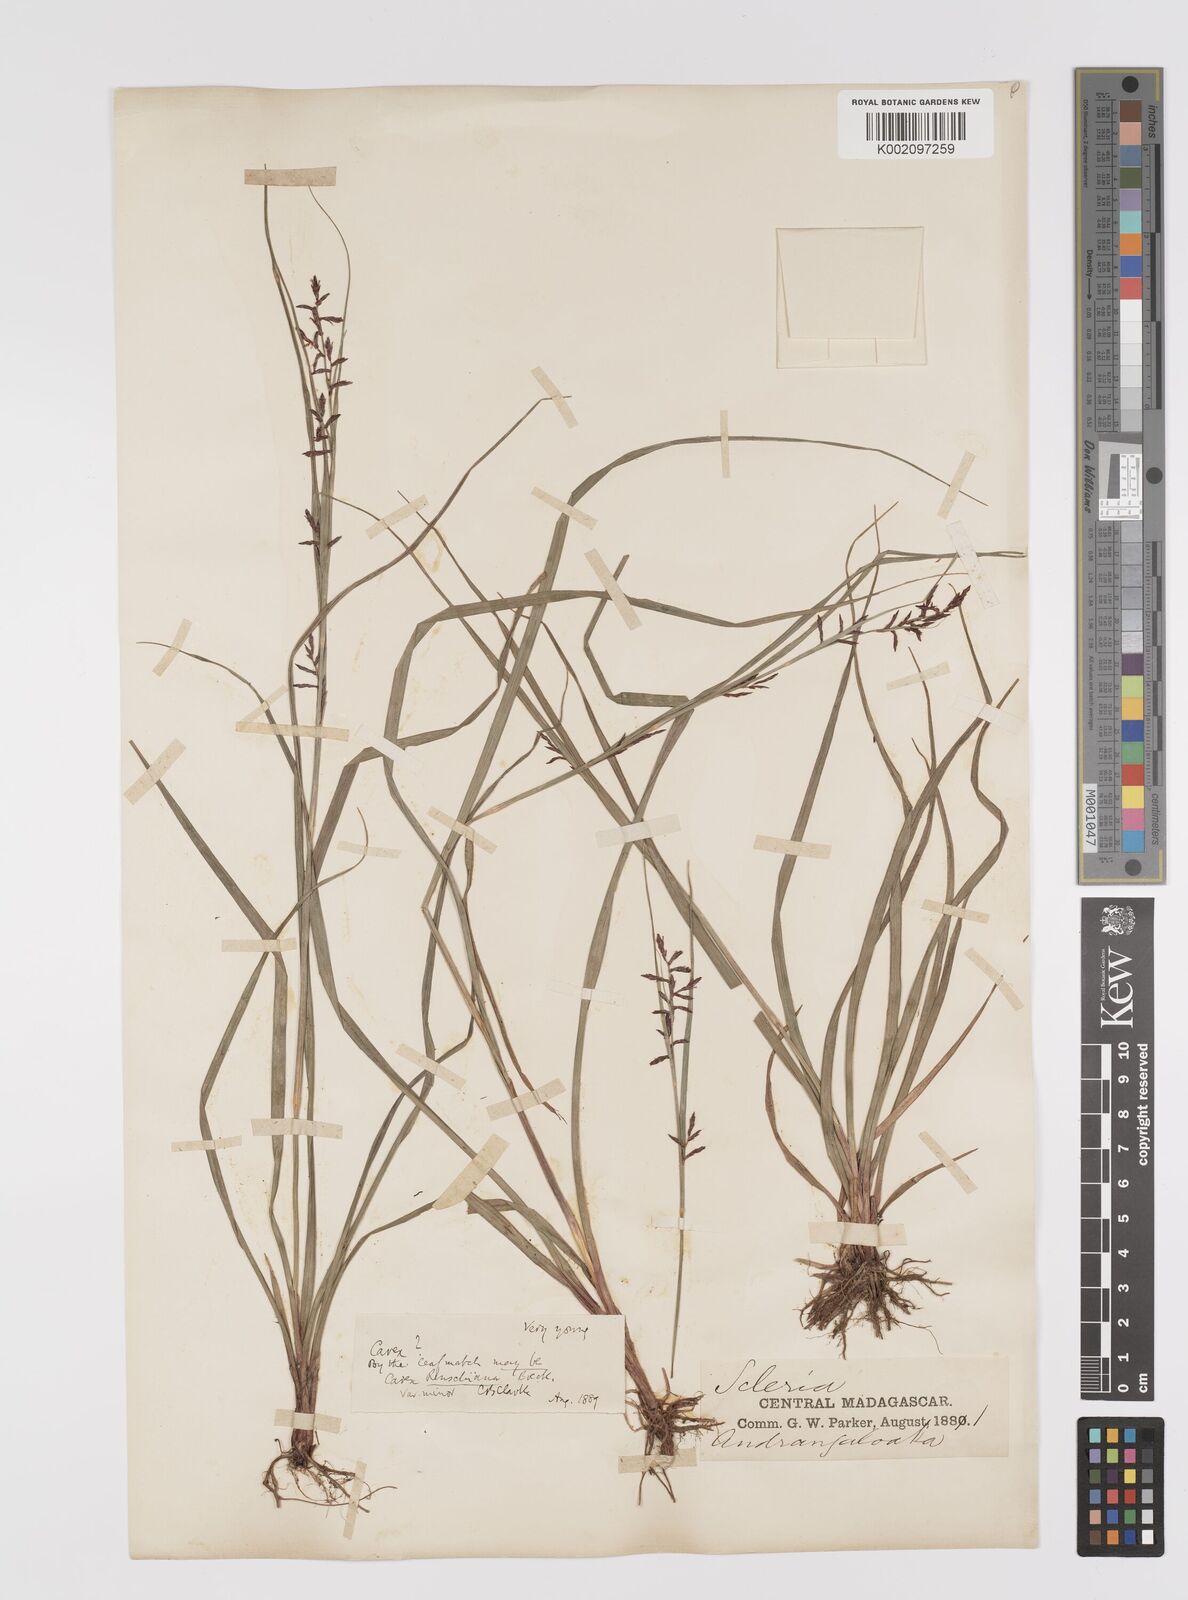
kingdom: Plantae
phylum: Tracheophyta
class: Liliopsida
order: Poales
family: Cyperaceae
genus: Carex
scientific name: Carex renschiana
